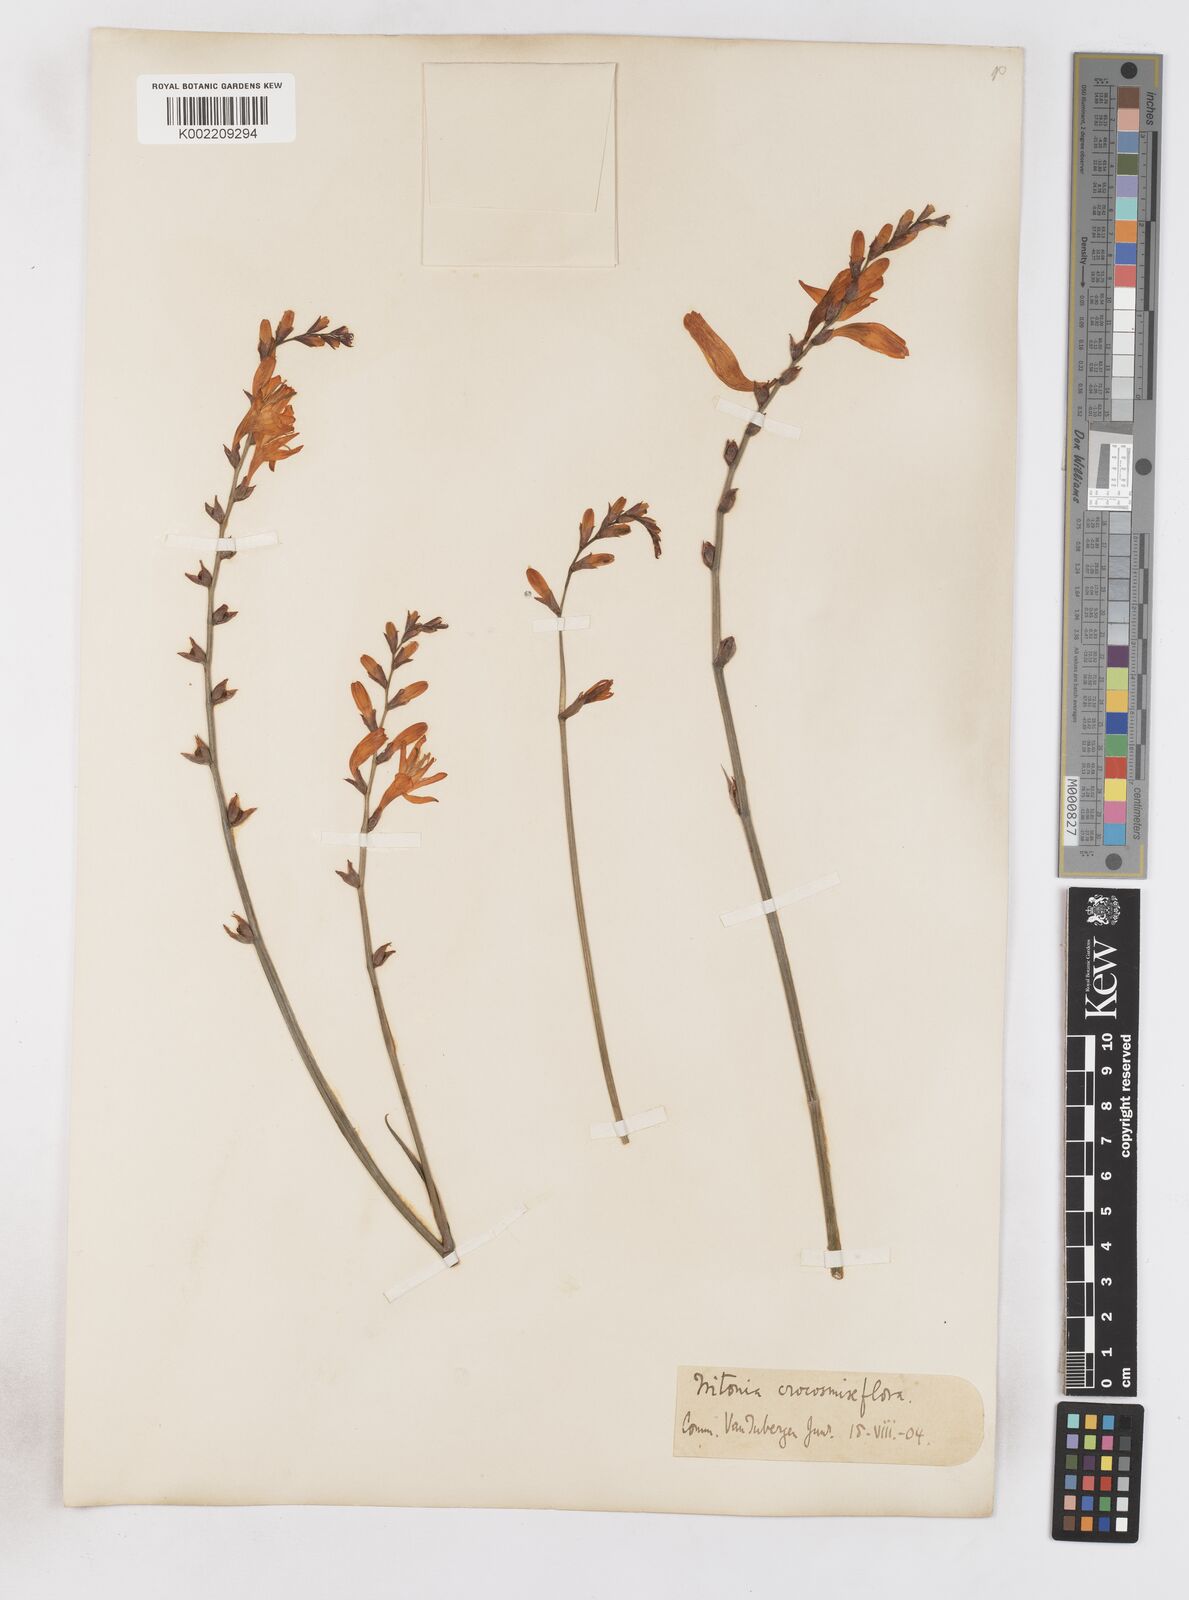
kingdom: Plantae
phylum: Tracheophyta
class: Liliopsida
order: Asparagales
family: Iridaceae
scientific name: Iridaceae
